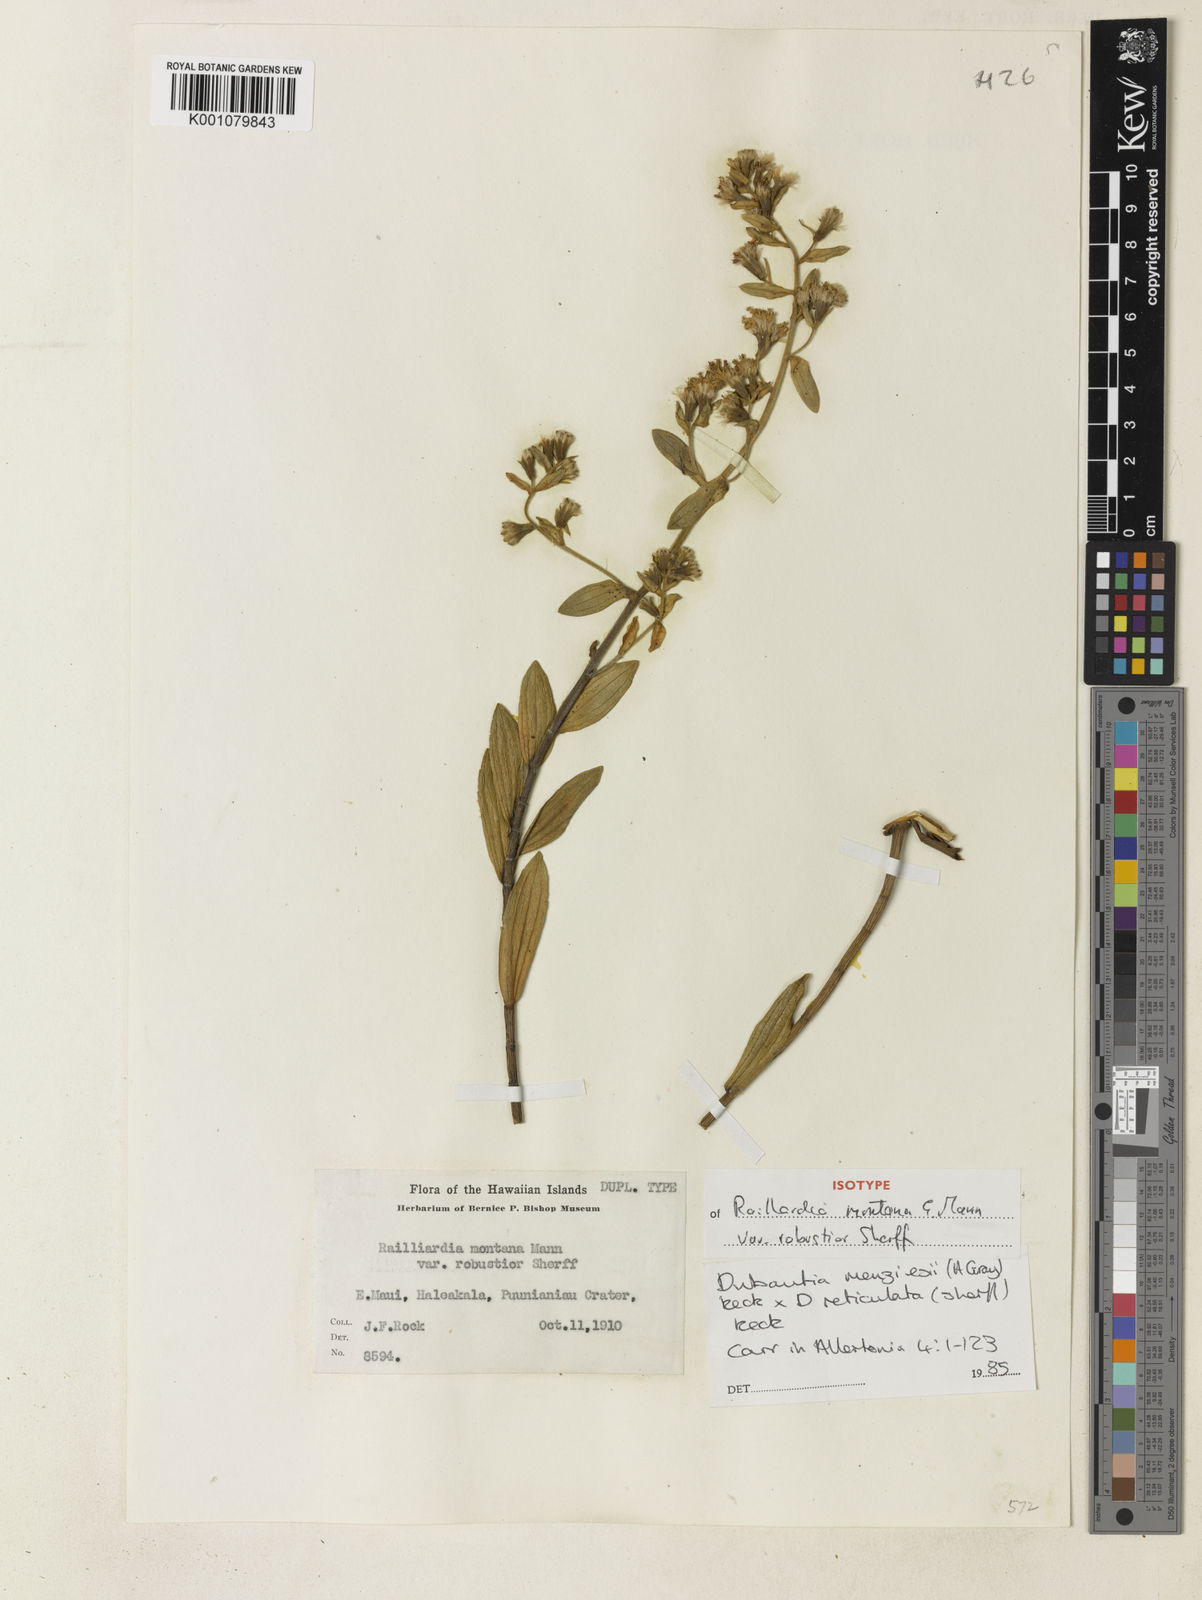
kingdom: Plantae
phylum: Tracheophyta
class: Magnoliopsida
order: Asterales
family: Asteraceae
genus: Dubautia
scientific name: Dubautia linearis
